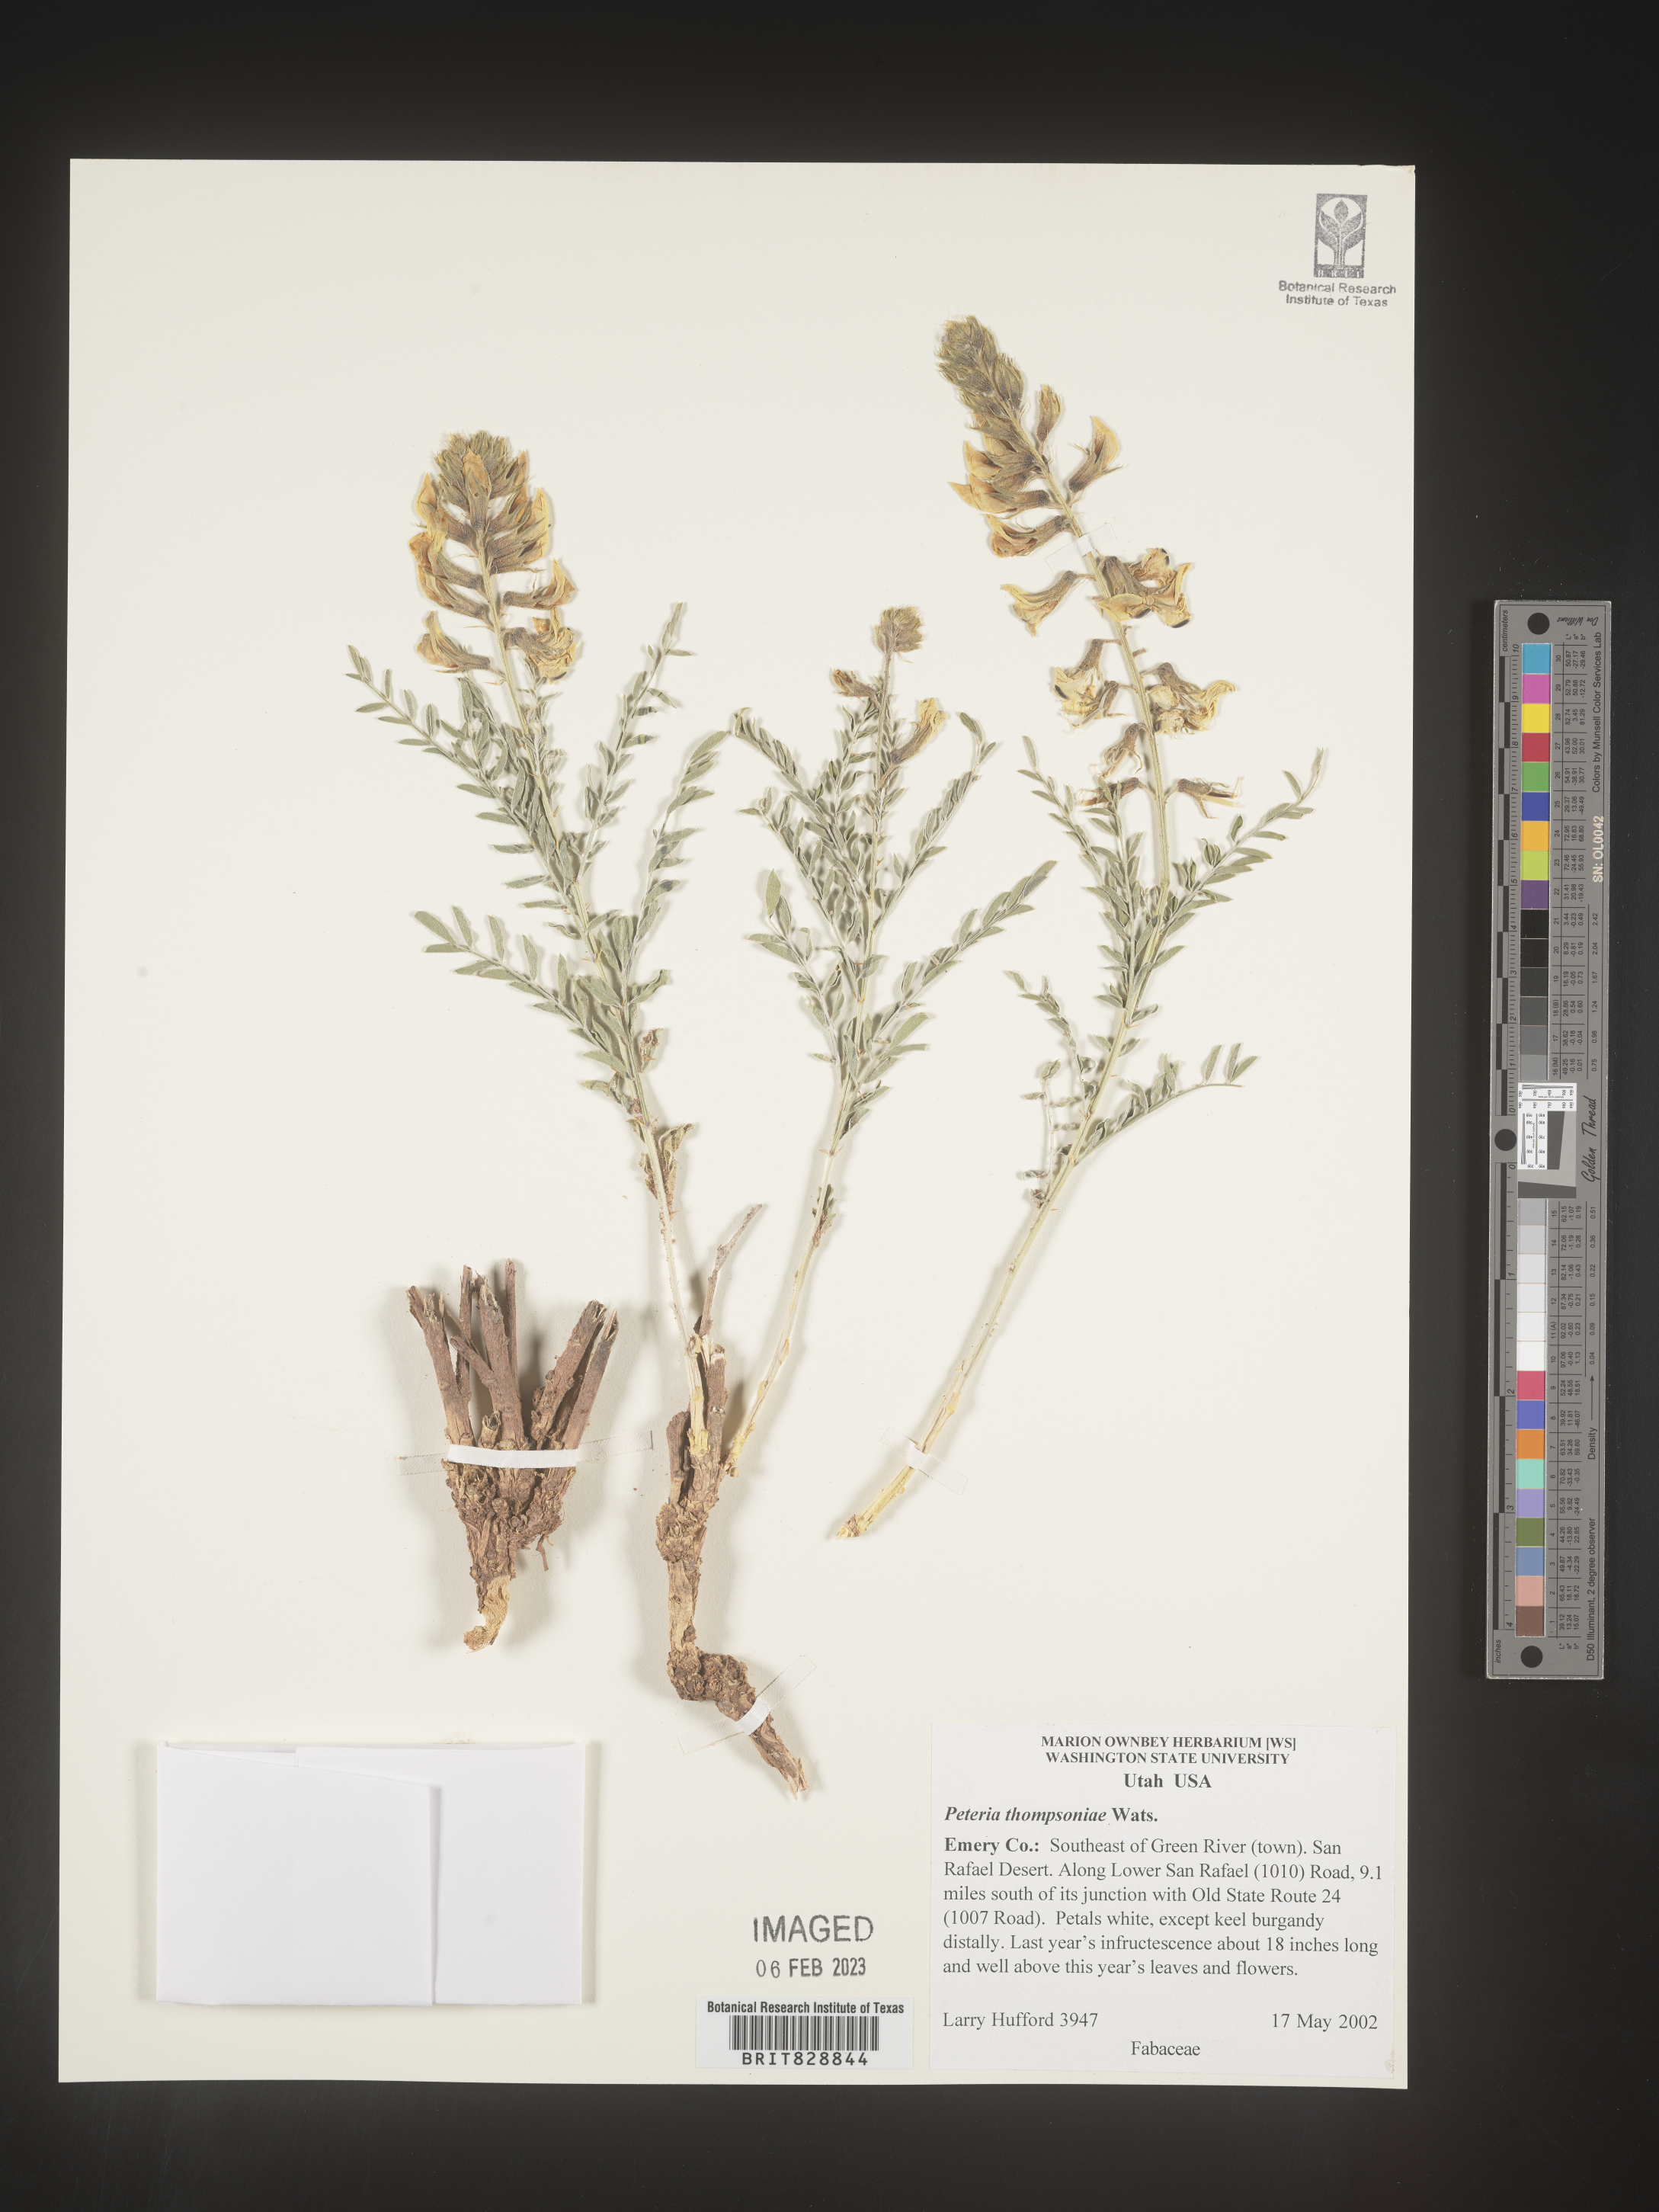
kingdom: Plantae
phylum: Tracheophyta
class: Magnoliopsida
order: Fabales
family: Fabaceae
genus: Peteria
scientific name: Peteria
